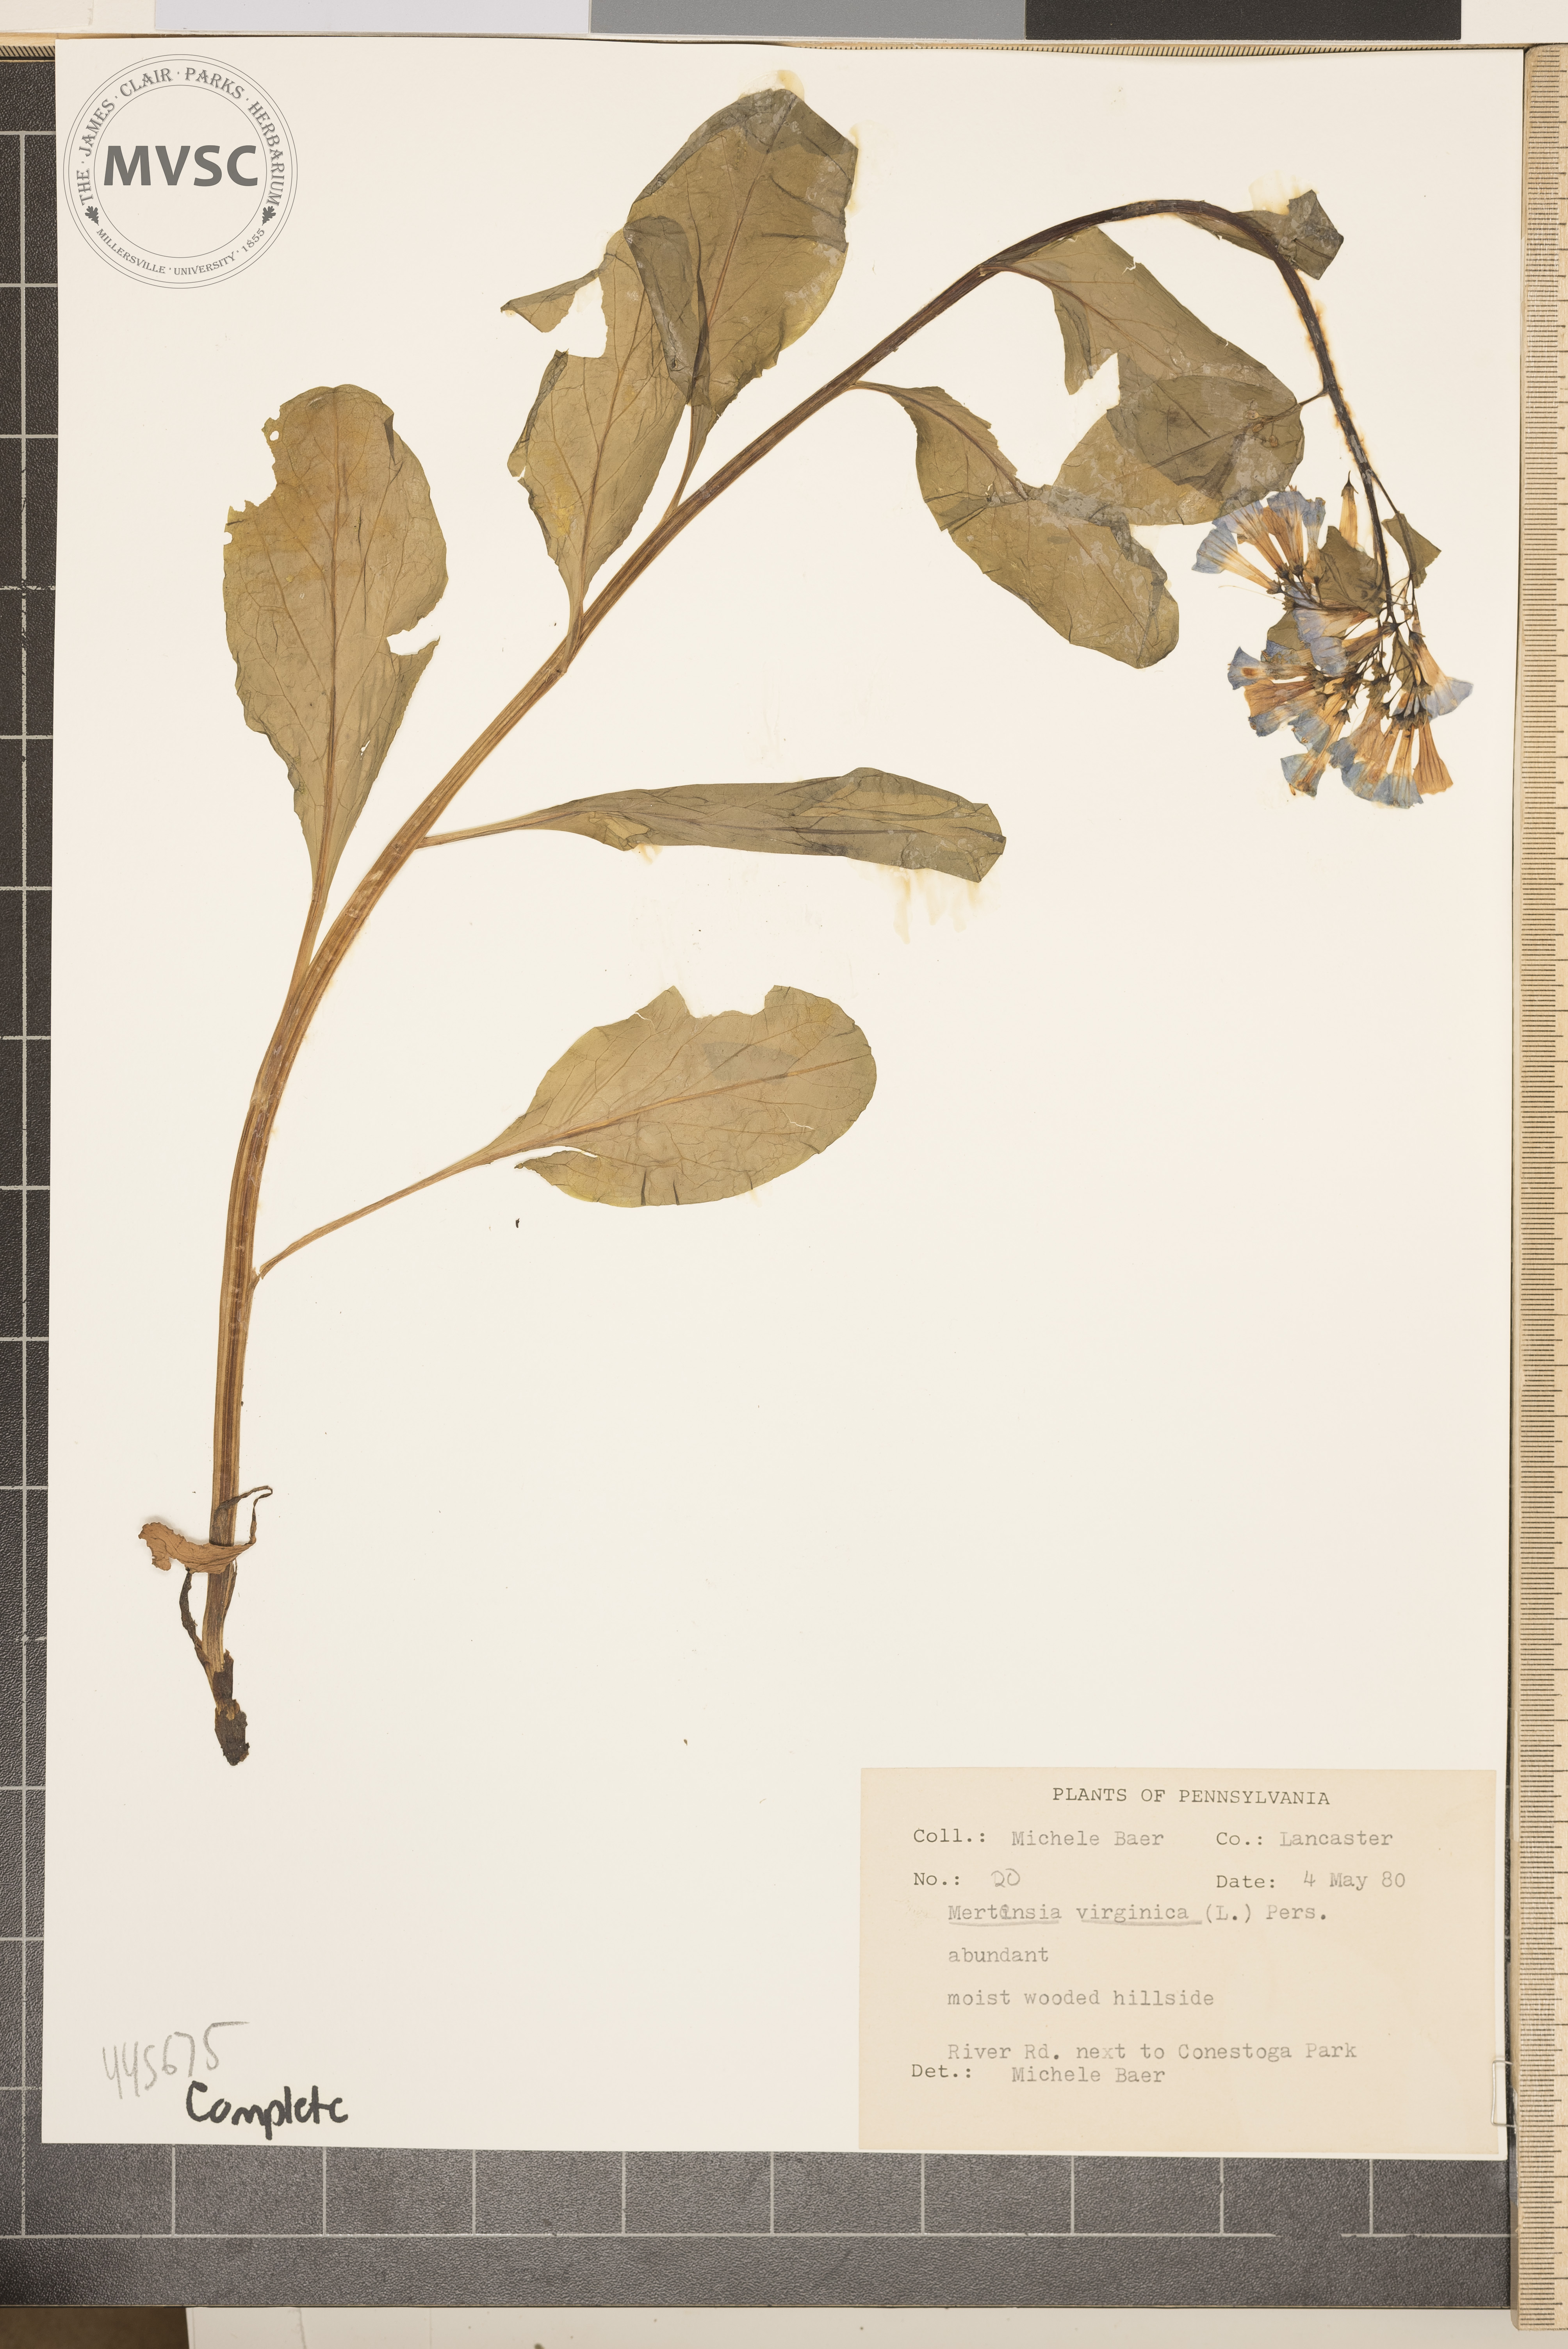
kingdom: Plantae
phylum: Tracheophyta
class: Magnoliopsida
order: Boraginales
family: Boraginaceae
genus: Mertensia
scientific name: Mertensia virginica
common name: Virginia bluebells
